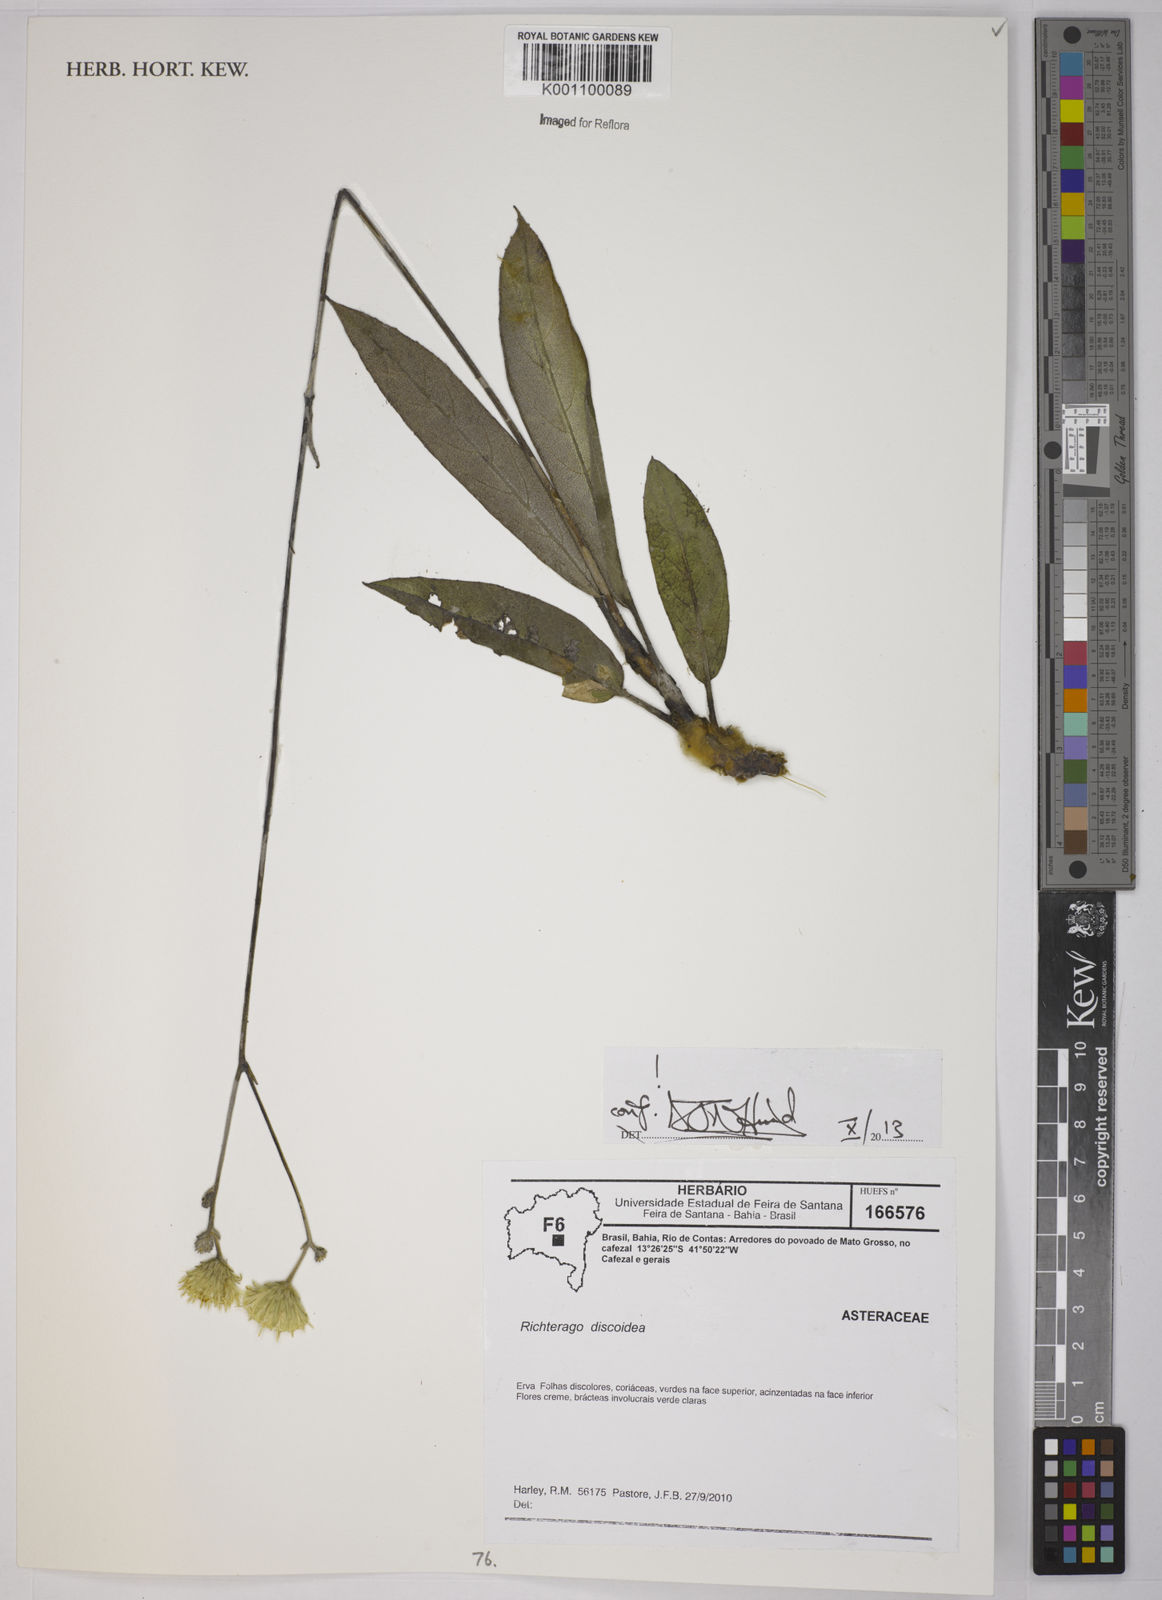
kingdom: Plantae
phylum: Tracheophyta
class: Magnoliopsida
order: Asterales
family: Asteraceae
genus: Richterago
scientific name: Richterago discoidea
